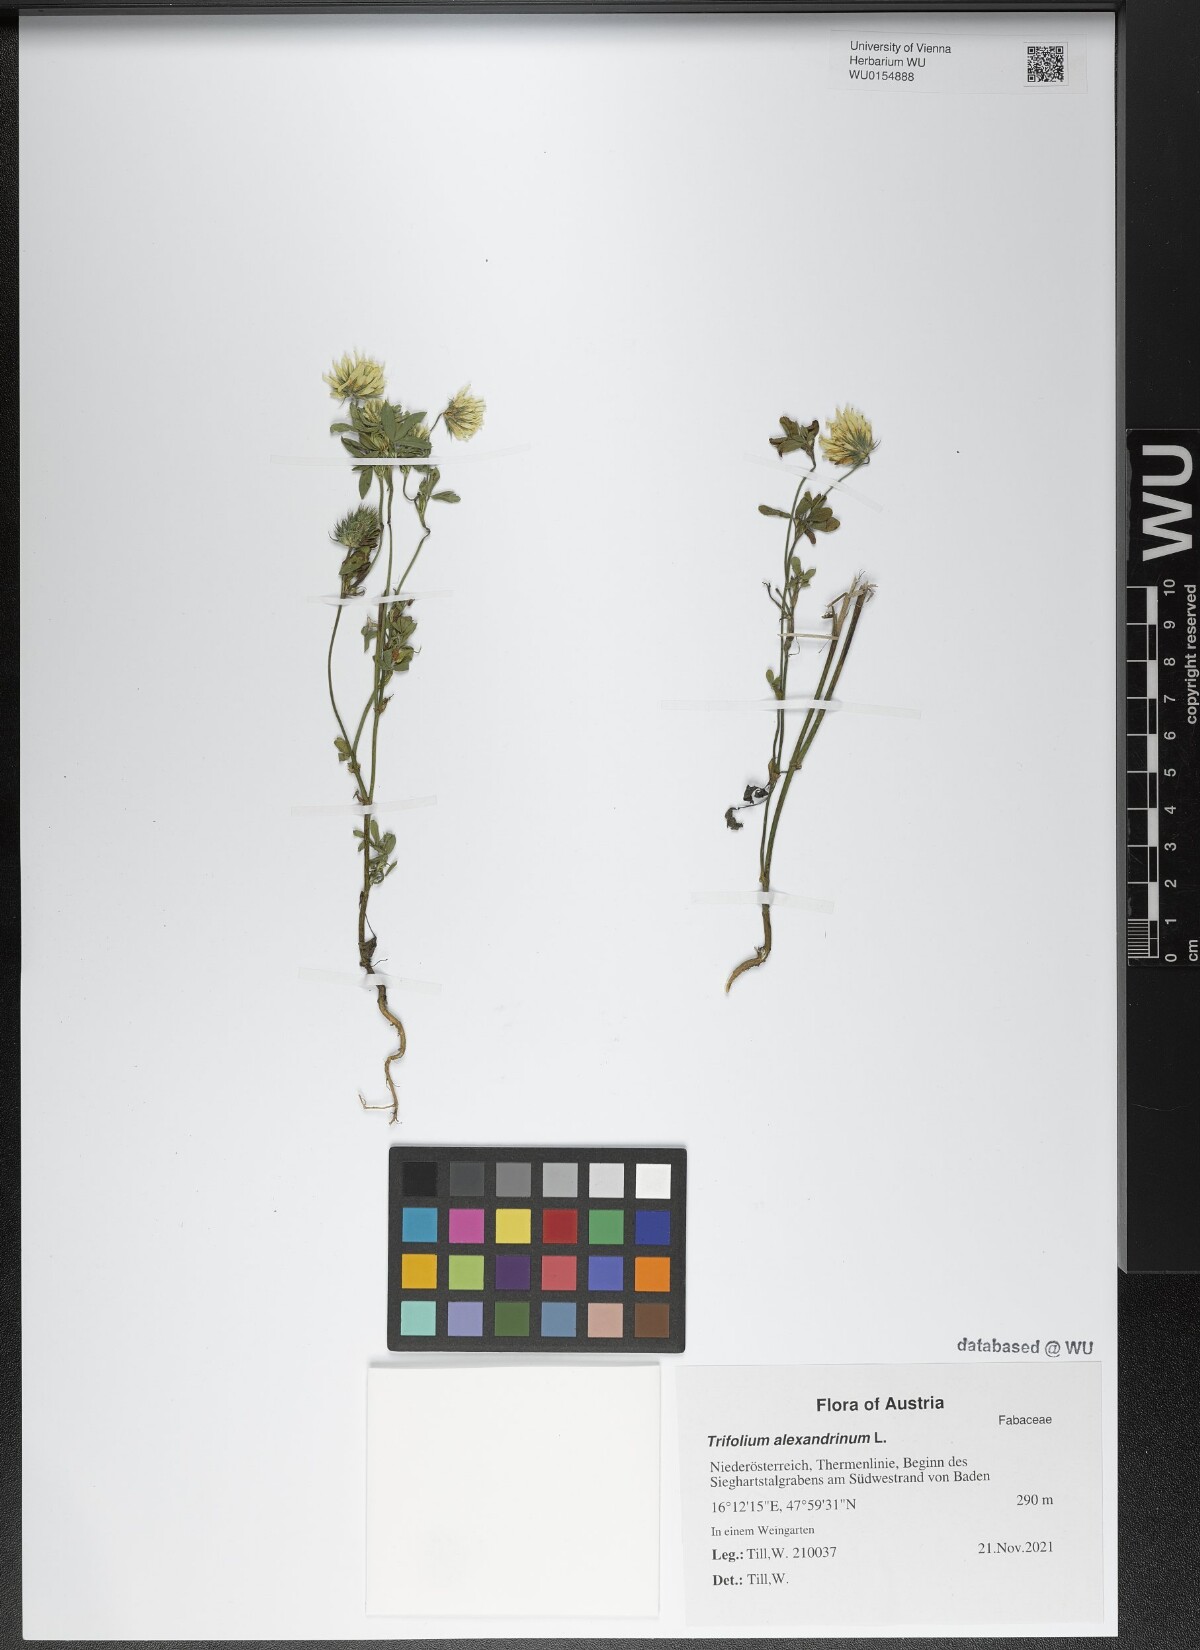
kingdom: Plantae
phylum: Tracheophyta
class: Magnoliopsida
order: Fabales
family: Fabaceae
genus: Trifolium
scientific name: Trifolium alexandrinum
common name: Egyptian clover
